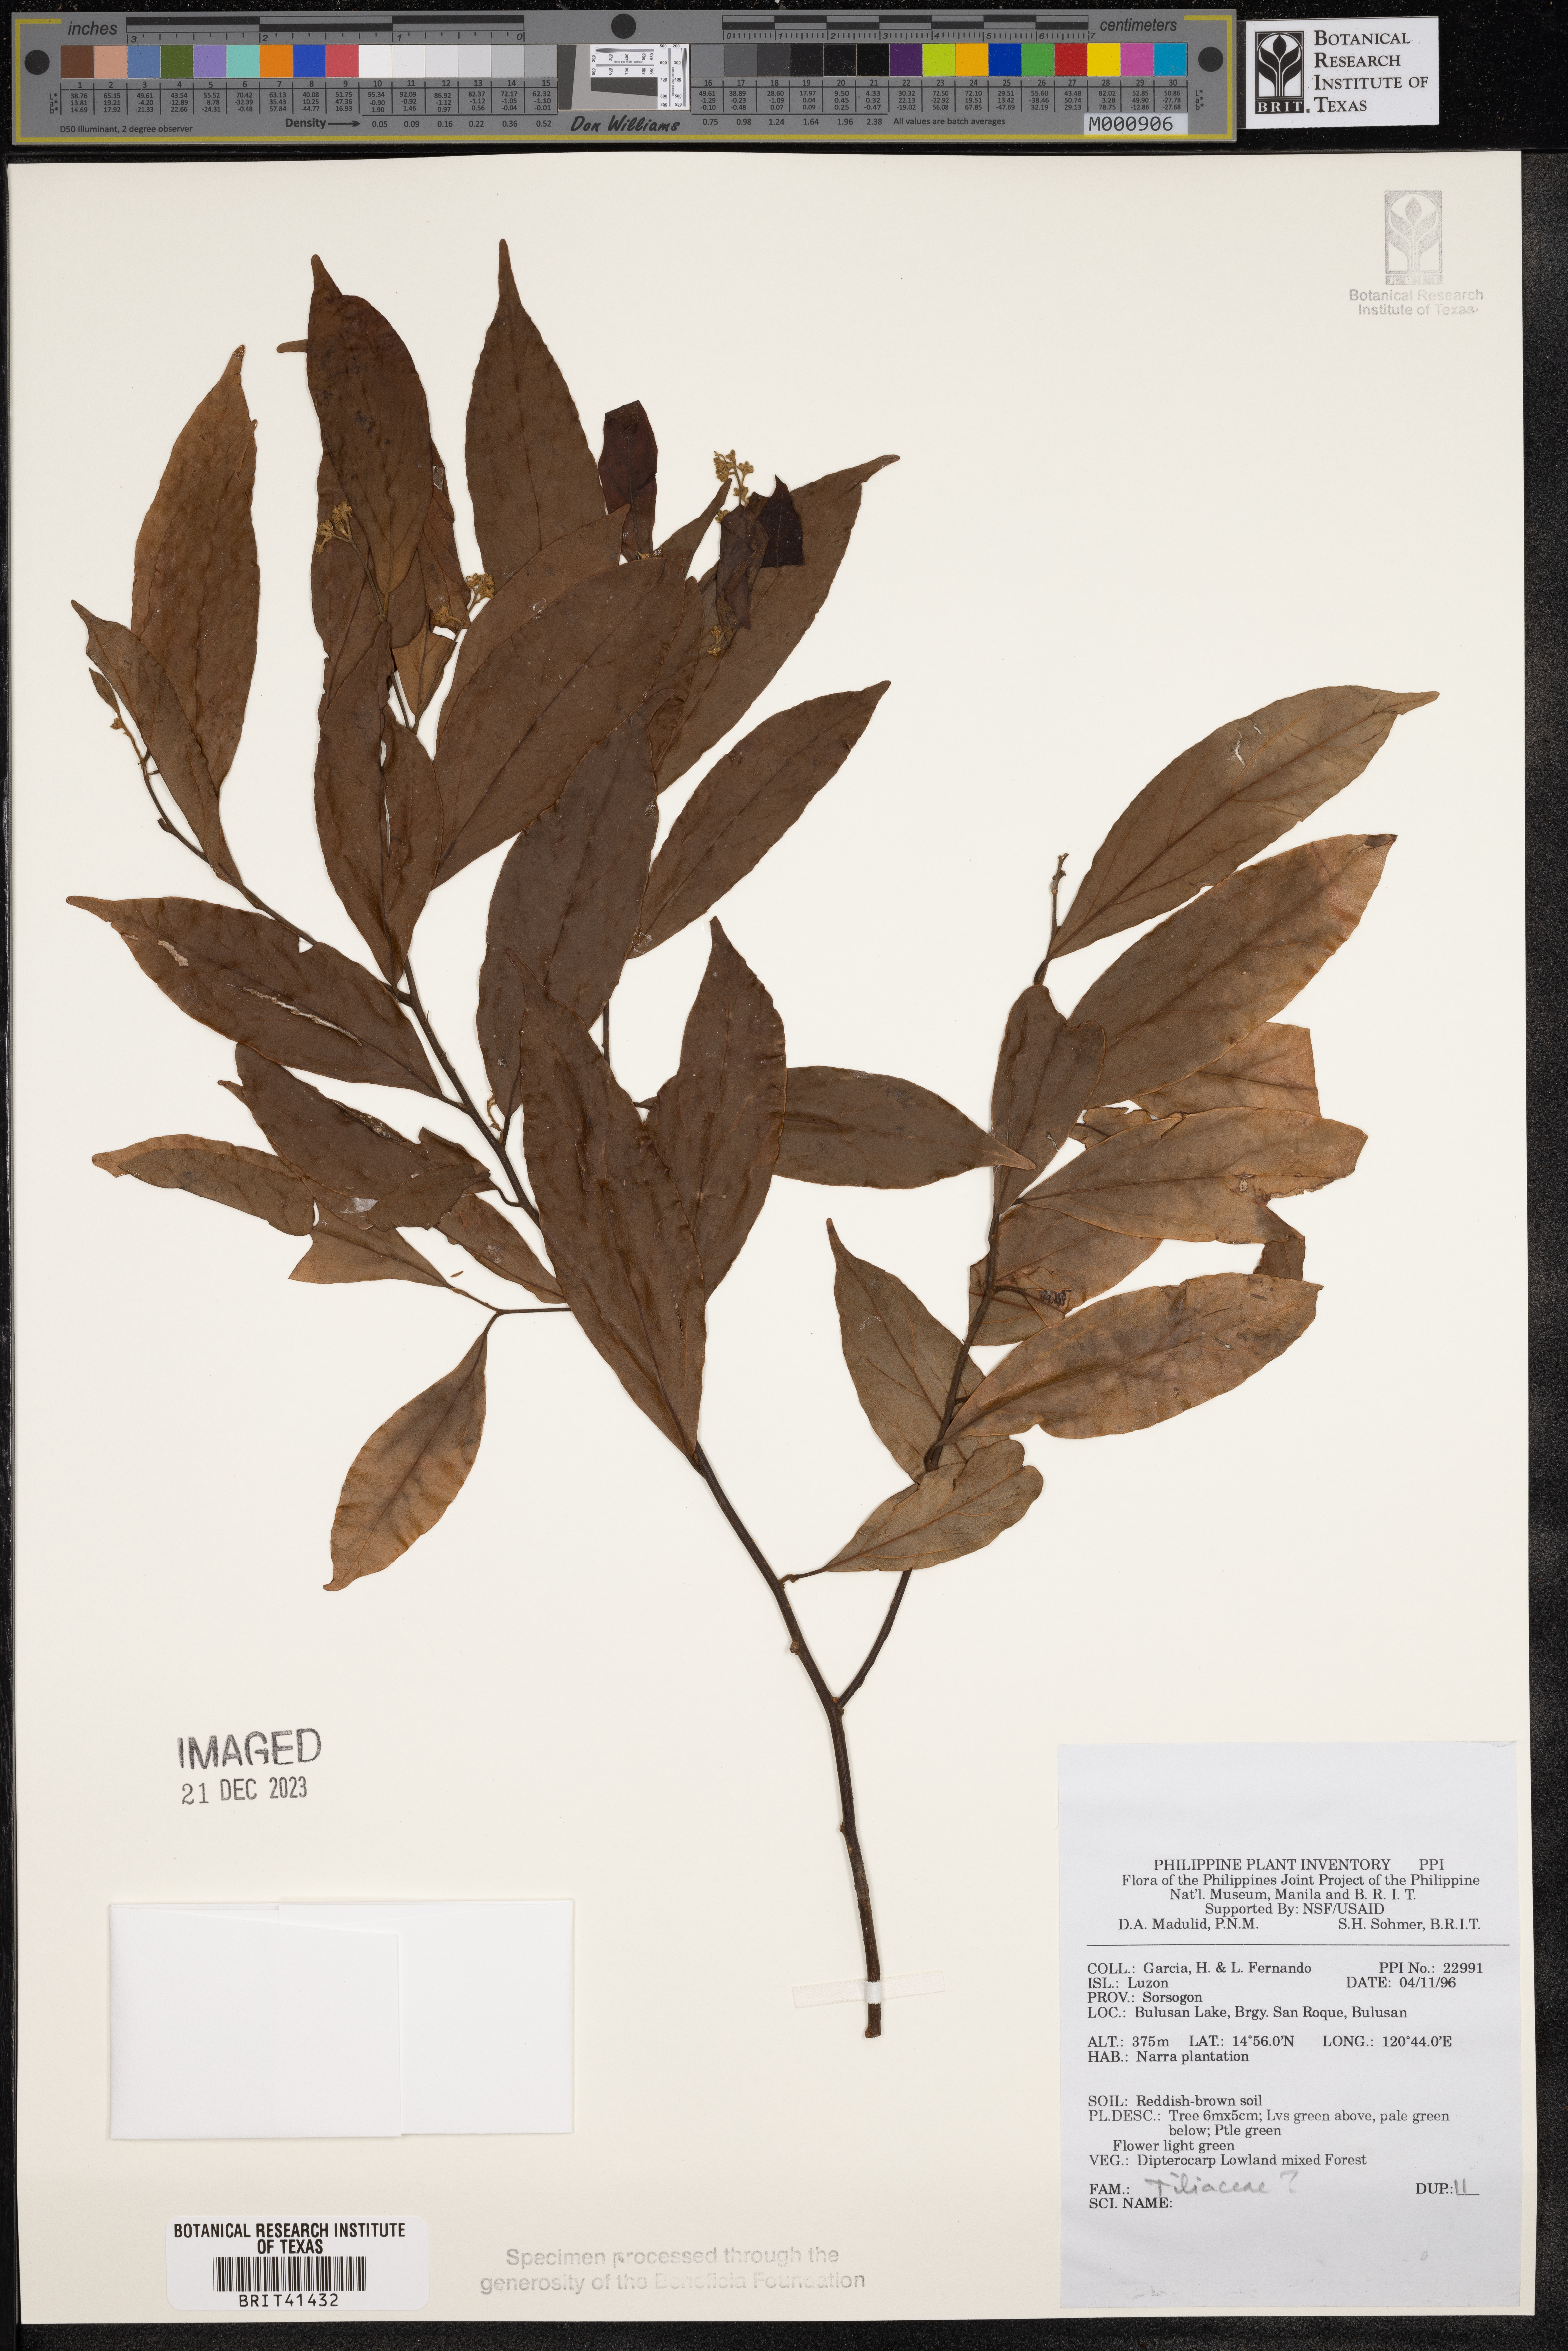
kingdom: Plantae
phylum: Tracheophyta
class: Magnoliopsida
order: Malvales
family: Tiliaceae
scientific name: Tiliaceae
